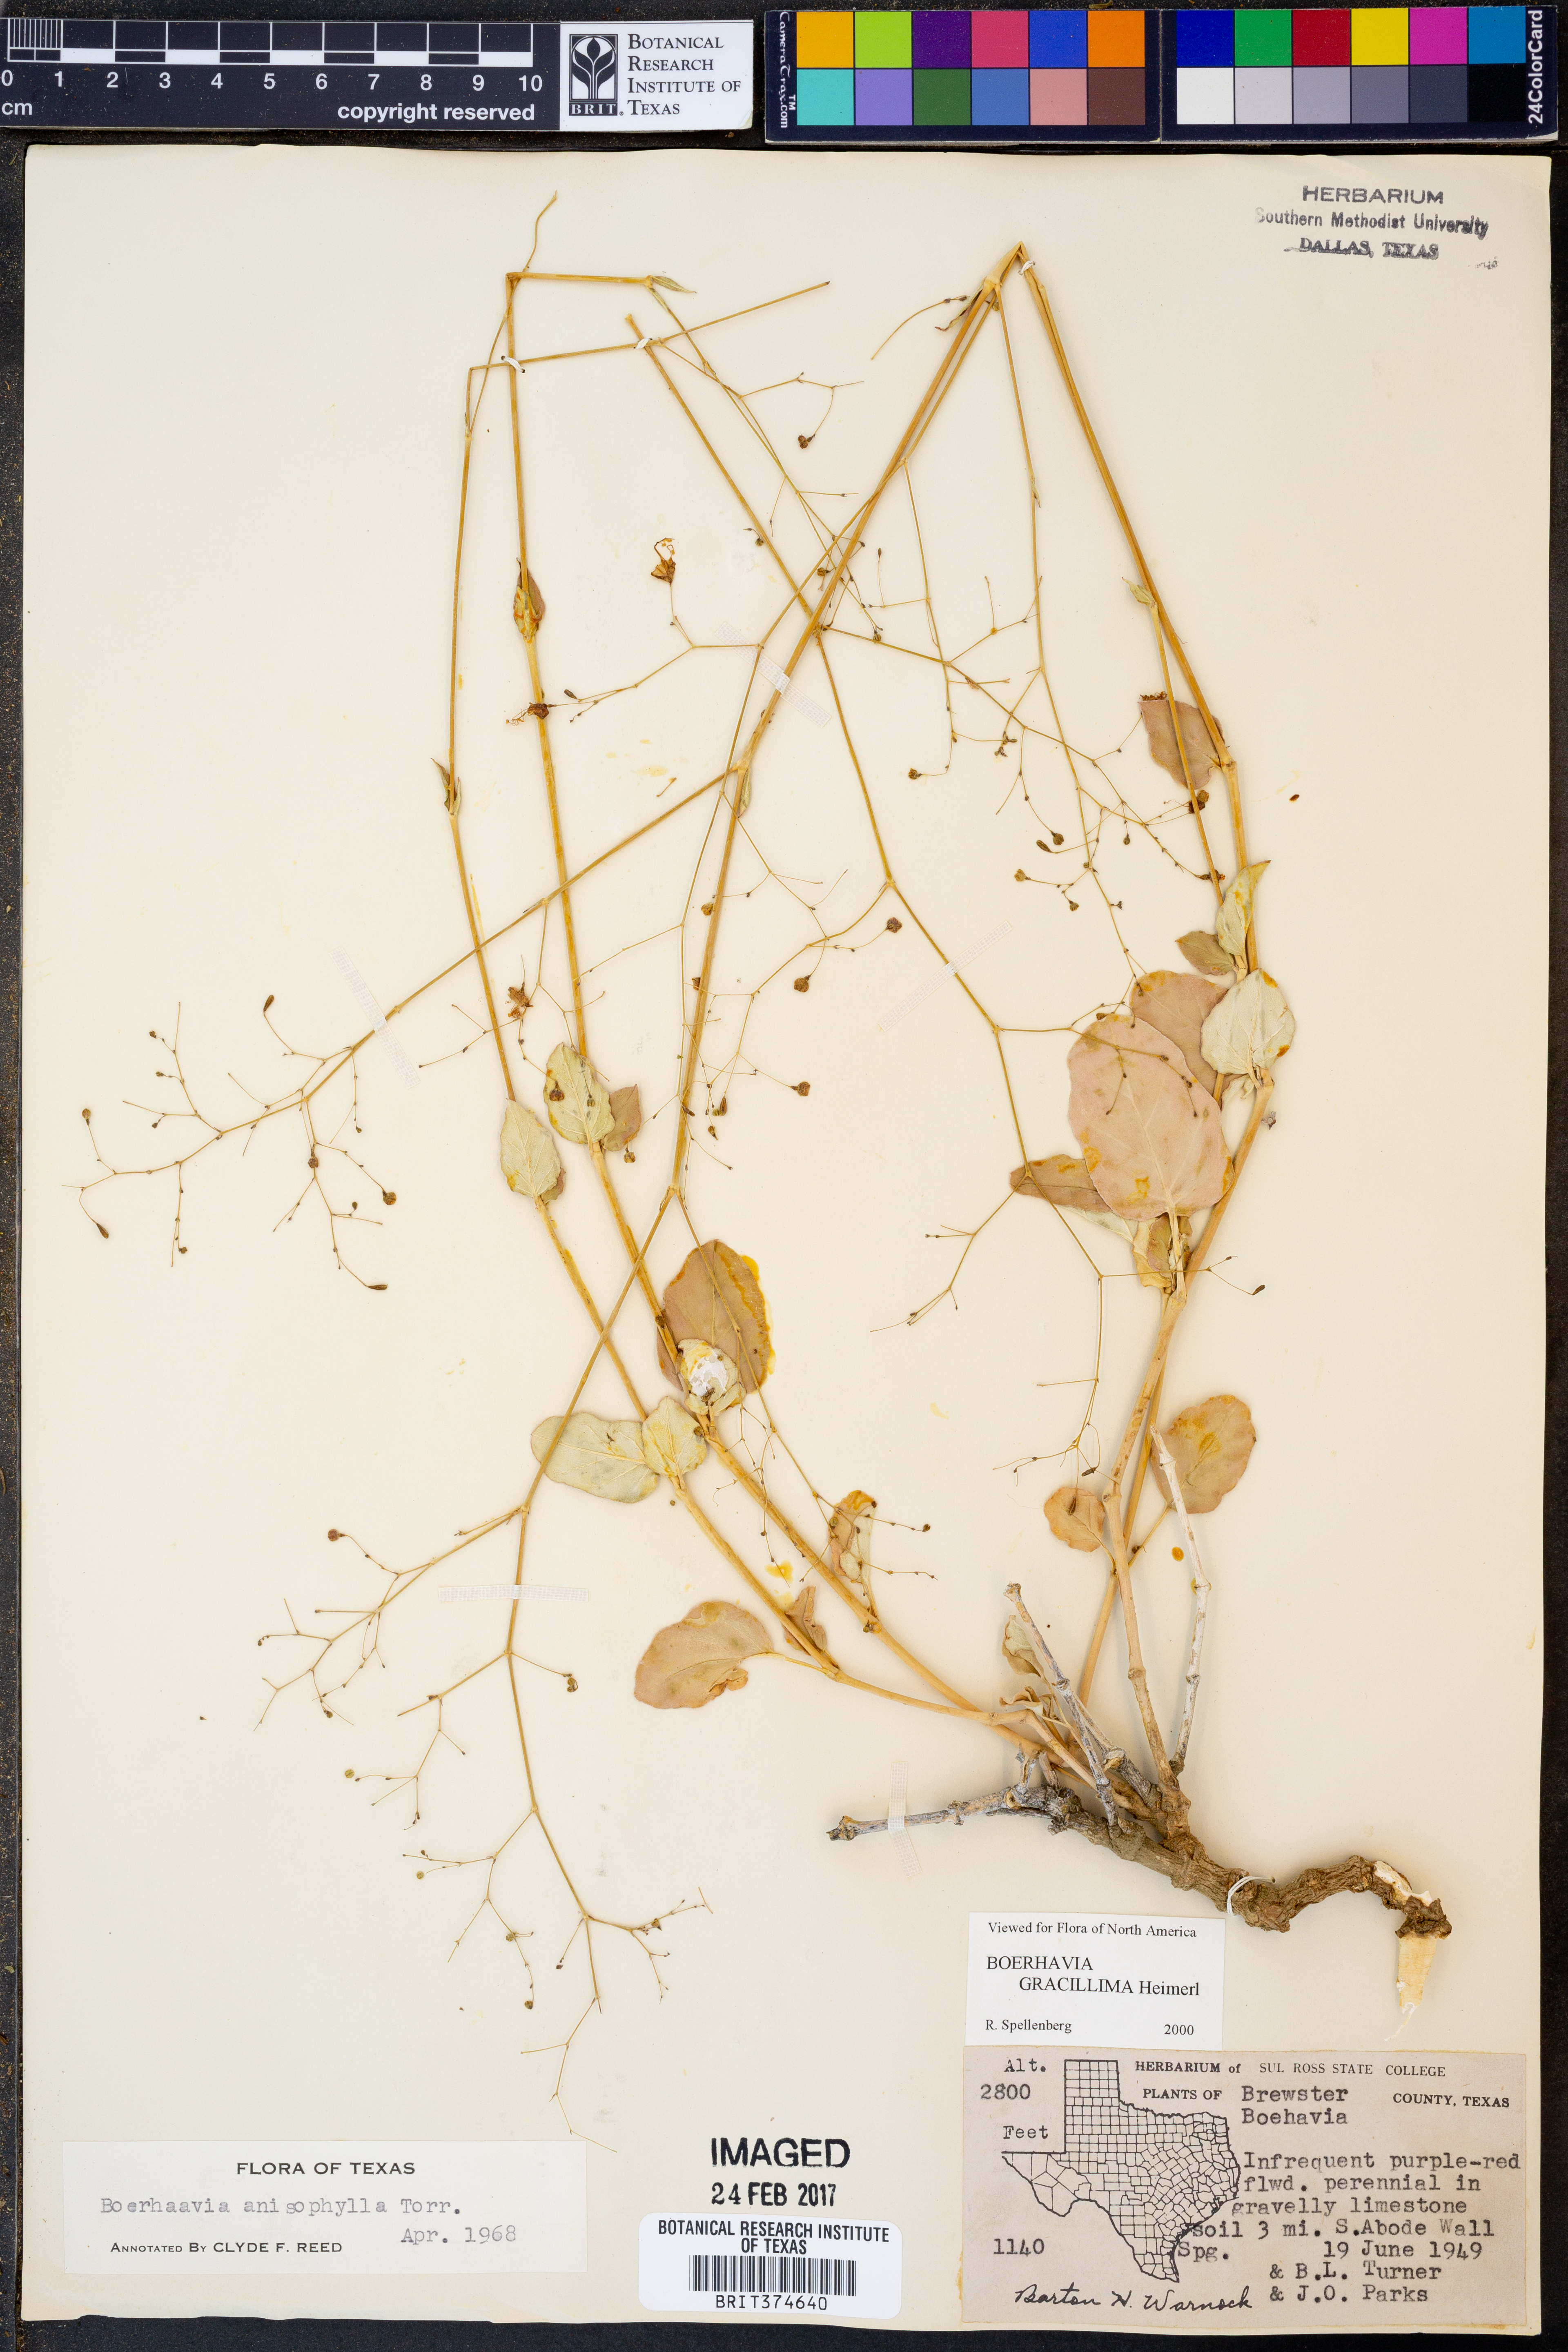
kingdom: Plantae
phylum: Tracheophyta
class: Magnoliopsida
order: Caryophyllales
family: Nyctaginaceae
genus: Boerhavia
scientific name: Boerhavia gracillima
